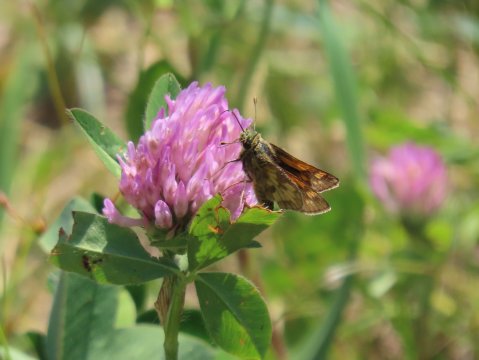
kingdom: Animalia
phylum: Arthropoda
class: Insecta
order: Lepidoptera
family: Hesperiidae
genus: Polites
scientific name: Polites coras
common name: Peck's Skipper
